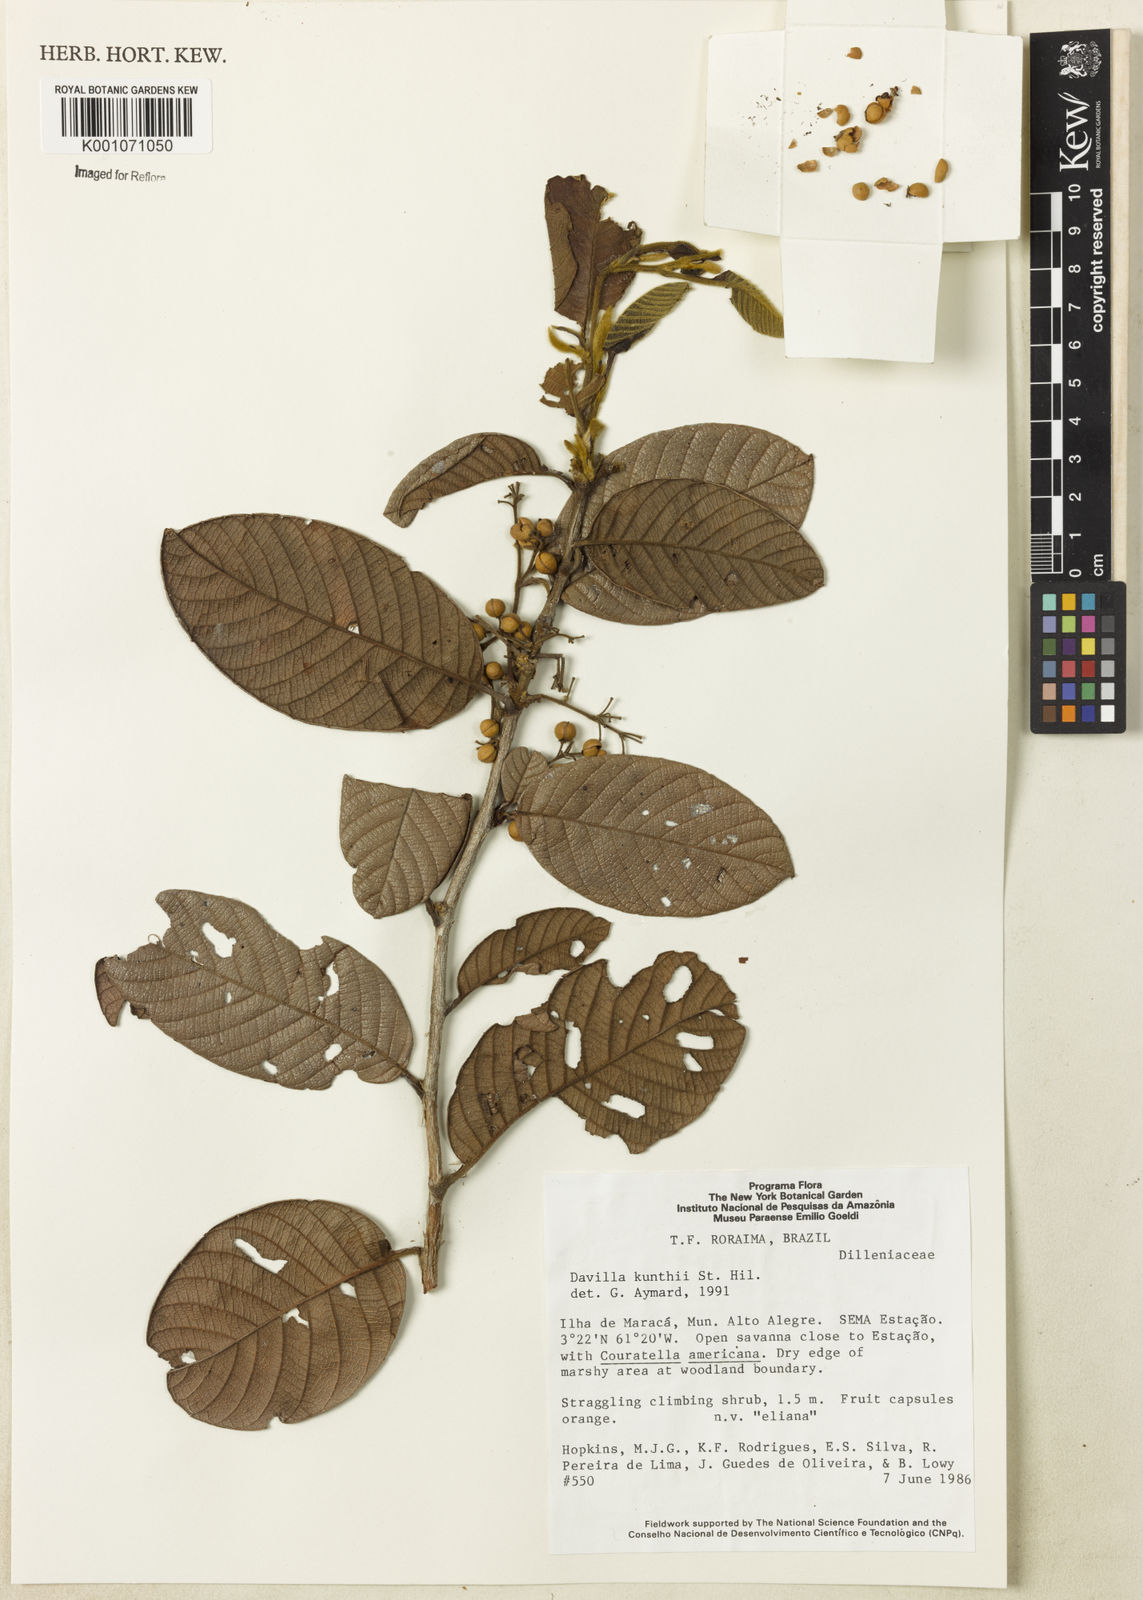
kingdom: Plantae
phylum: Tracheophyta
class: Magnoliopsida
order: Dilleniales
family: Dilleniaceae
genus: Davilla
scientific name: Davilla kunthii
